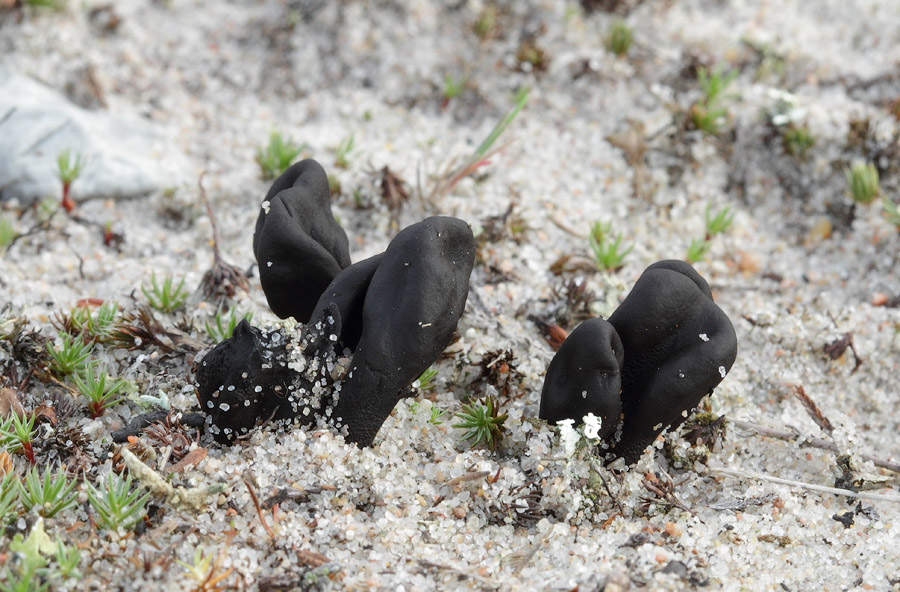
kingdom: Fungi
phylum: Ascomycota
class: Geoglossomycetes
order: Geoglossales
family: Geoglossaceae
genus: Sabuloglossum
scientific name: Sabuloglossum arenarium
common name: klit-jordtunge
